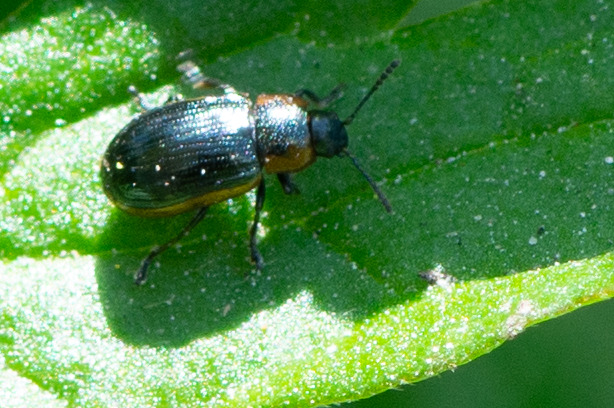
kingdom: Animalia
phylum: Arthropoda
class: Insecta
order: Coleoptera
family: Chrysomelidae
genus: Prasocuris
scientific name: Prasocuris marginella
